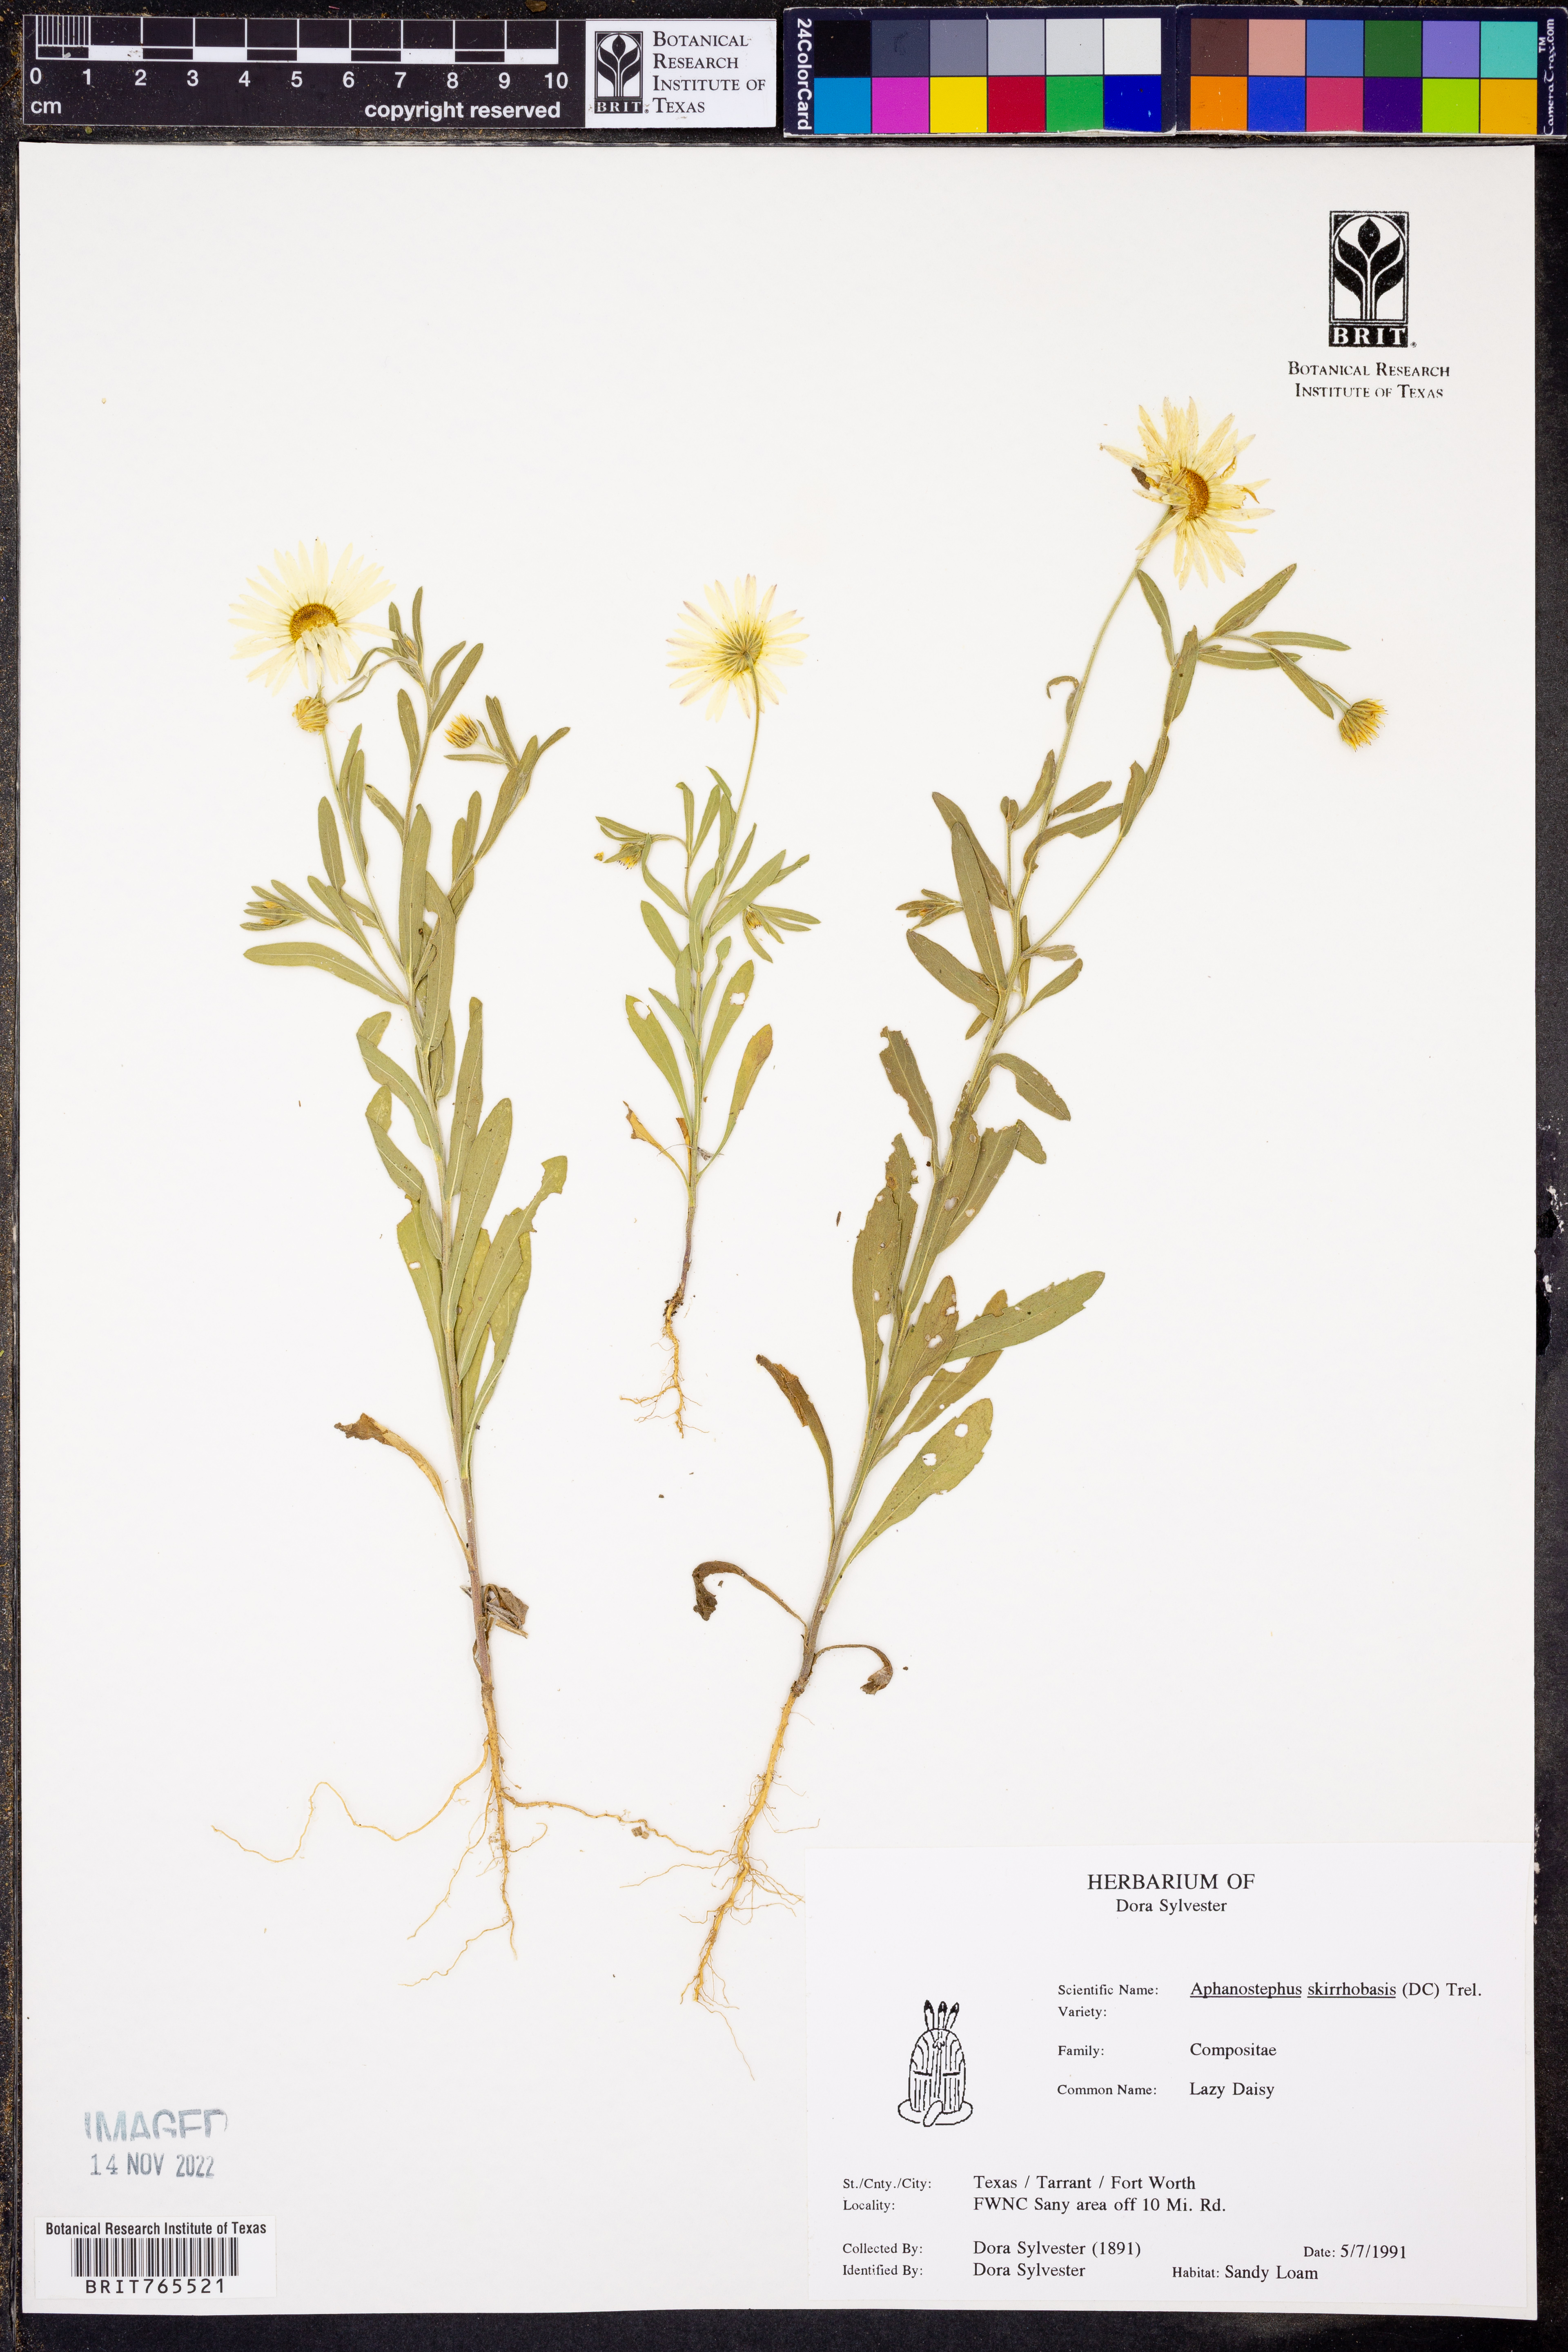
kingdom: Plantae
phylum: Tracheophyta
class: Magnoliopsida
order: Asterales
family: Asteraceae
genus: Aphanostephus
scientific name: Aphanostephus skirrhobasis
